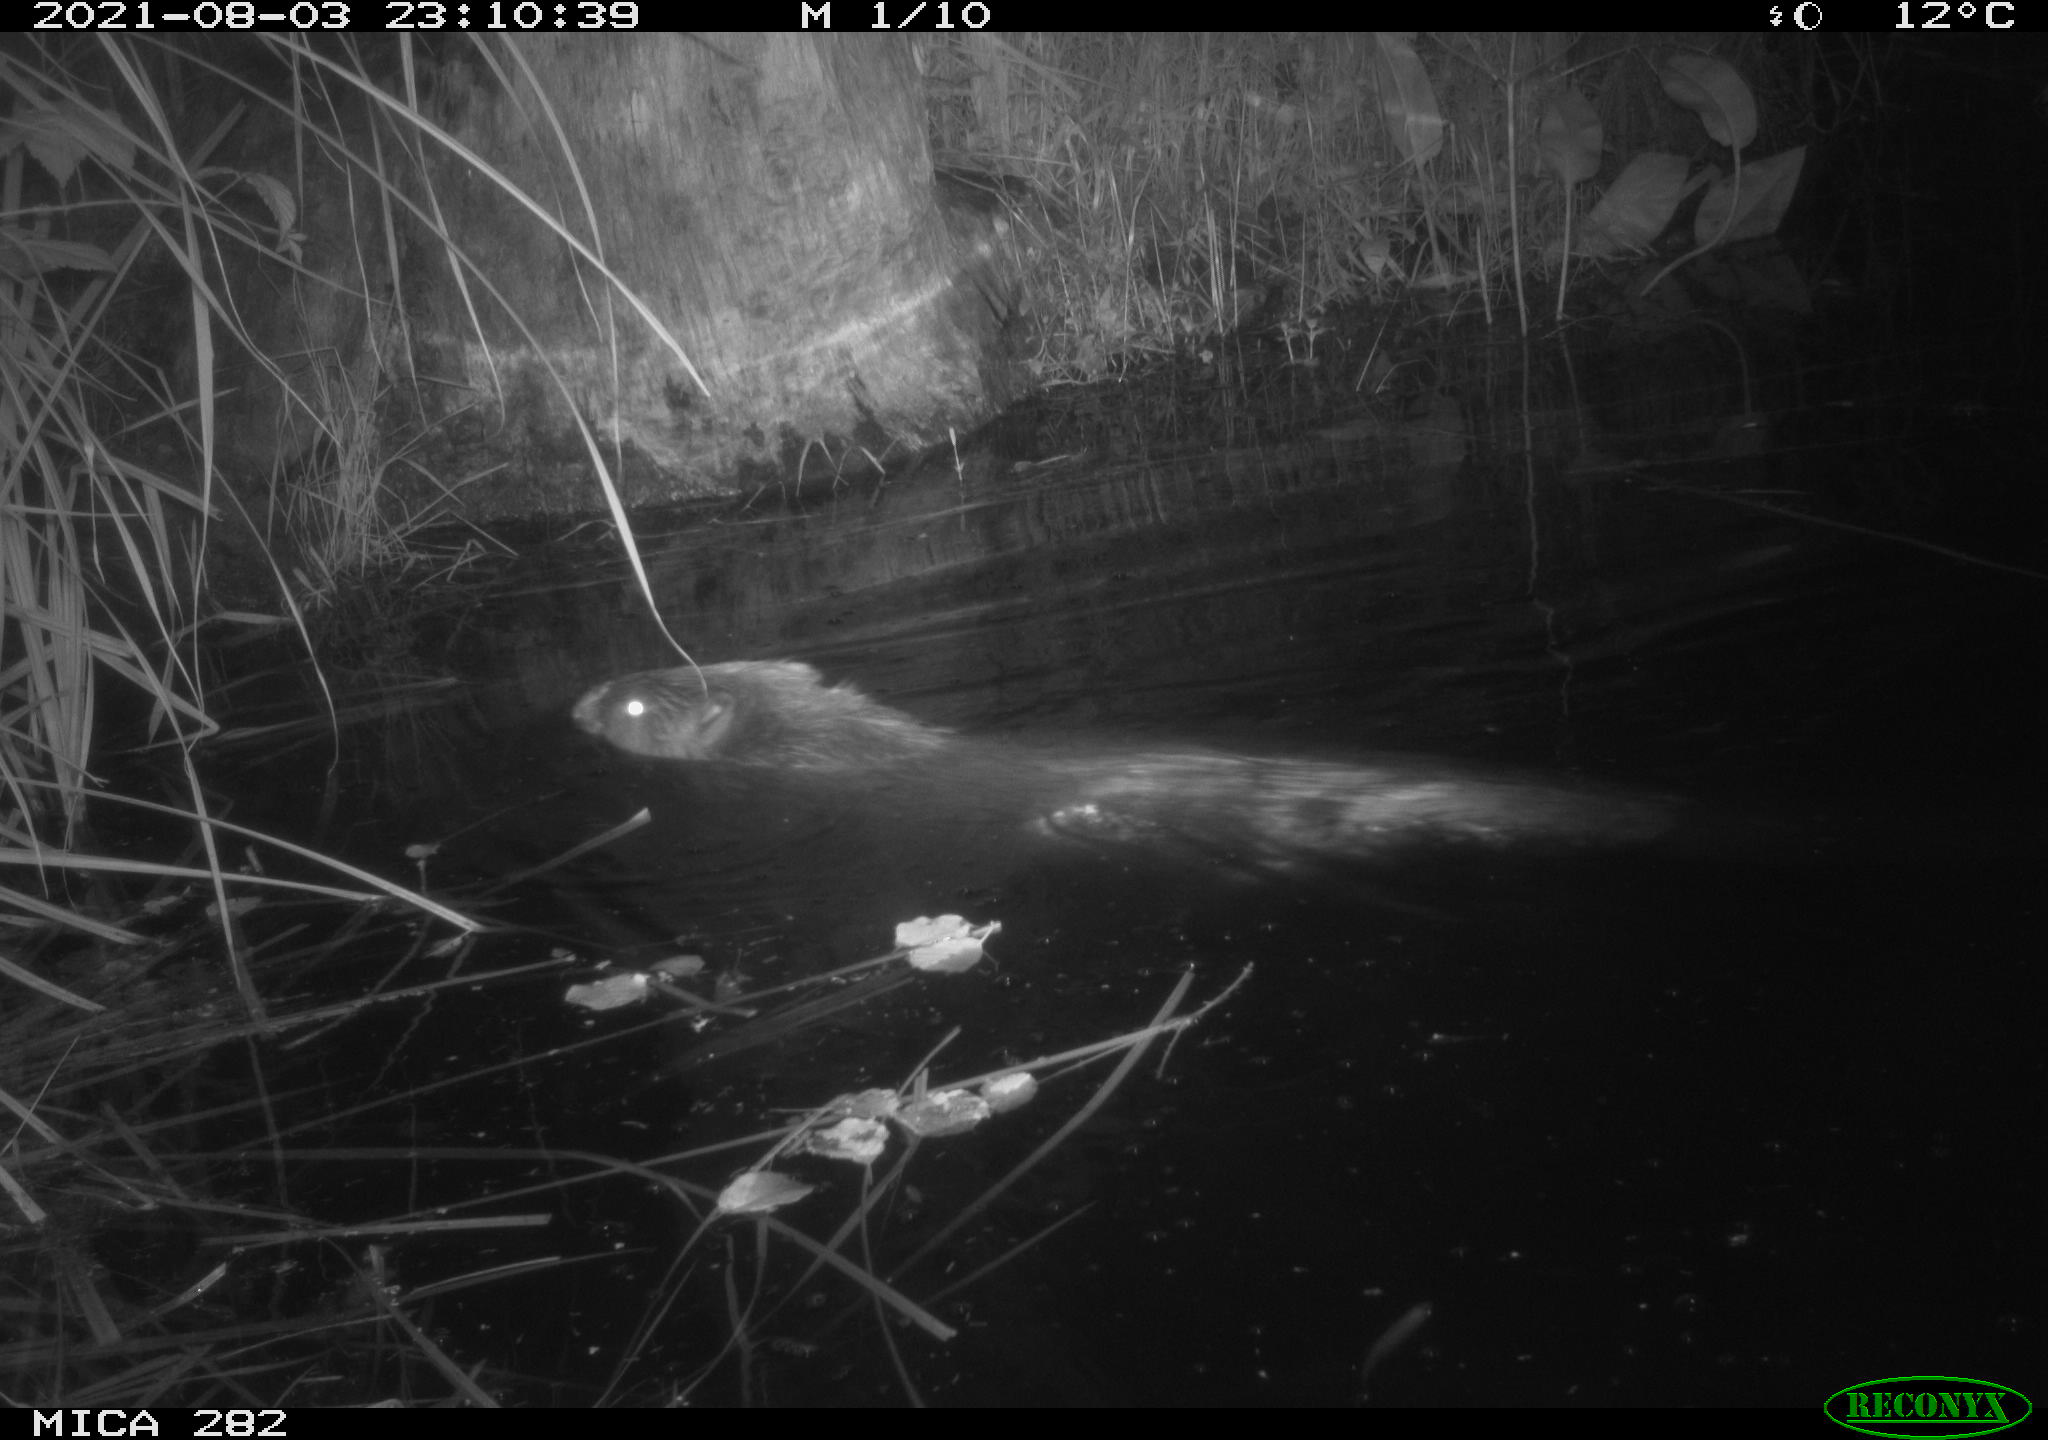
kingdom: Animalia
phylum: Chordata
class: Mammalia
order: Rodentia
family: Castoridae
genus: Castor
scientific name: Castor fiber
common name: Eurasian beaver
